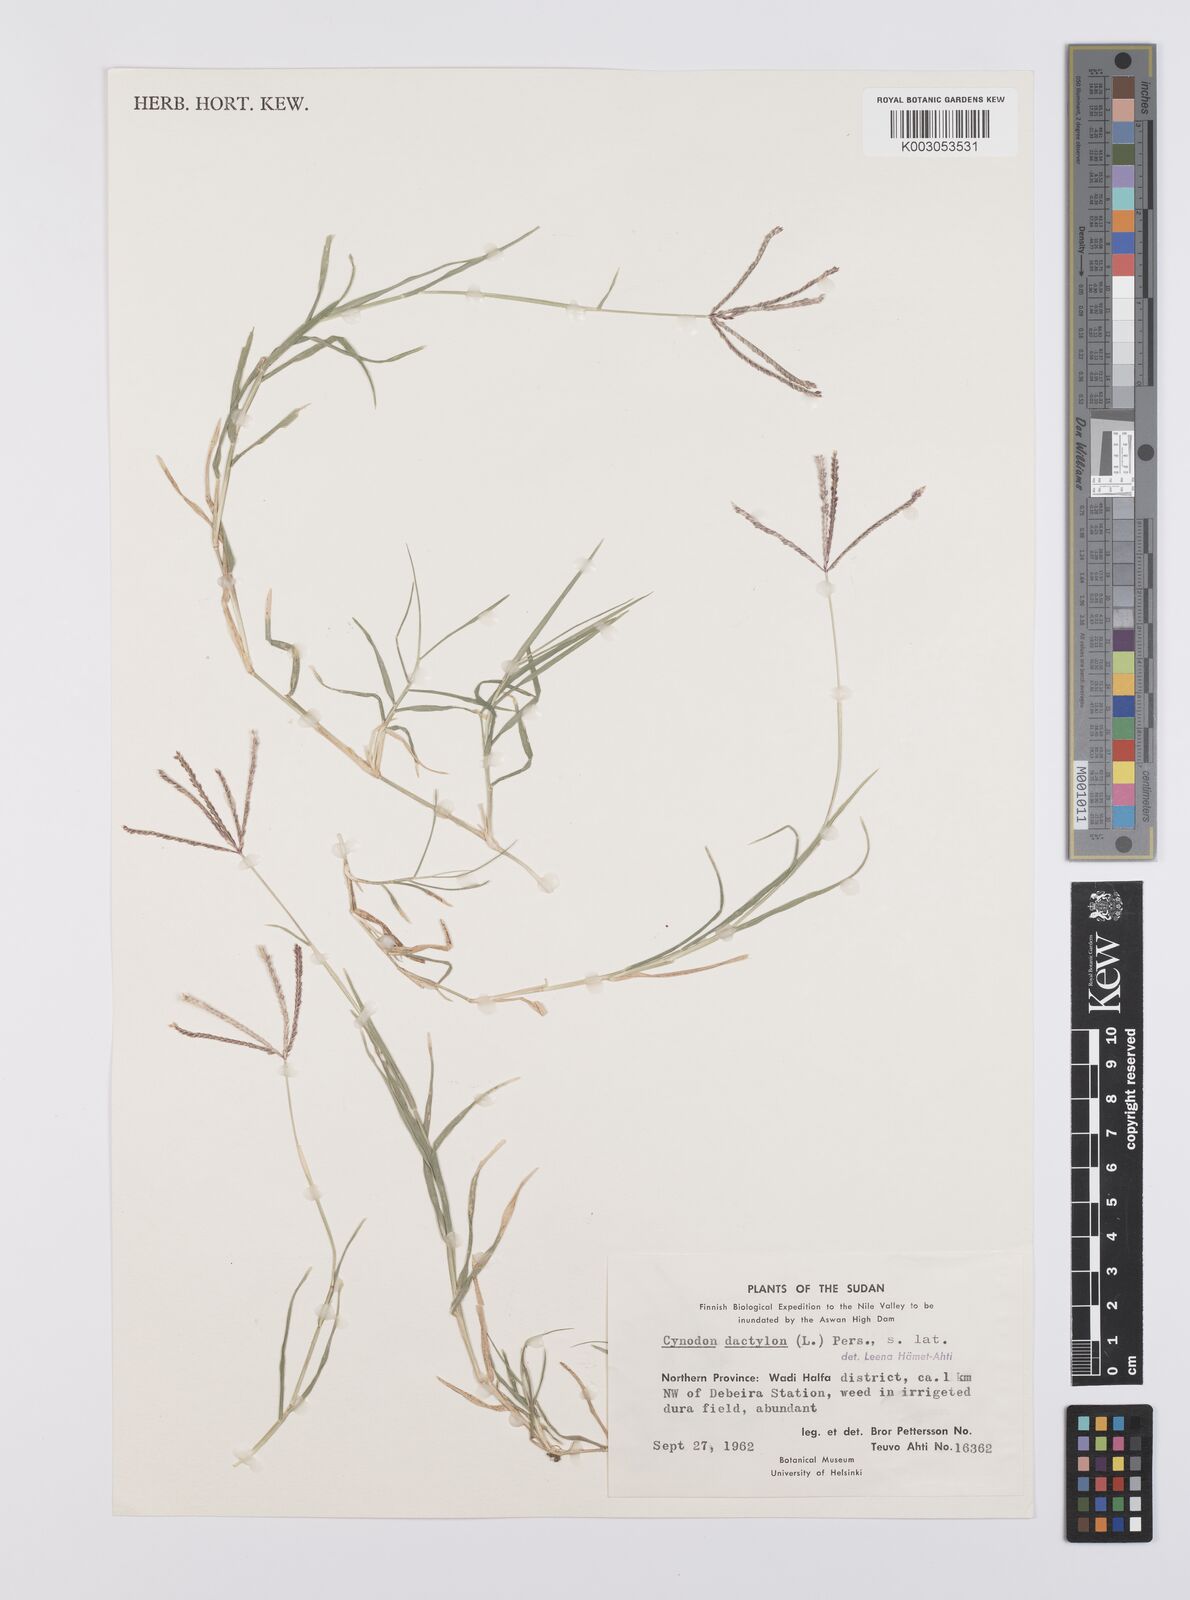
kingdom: Plantae
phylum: Tracheophyta
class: Liliopsida
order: Poales
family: Poaceae
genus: Cynodon
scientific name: Cynodon dactylon
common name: Bermuda grass
